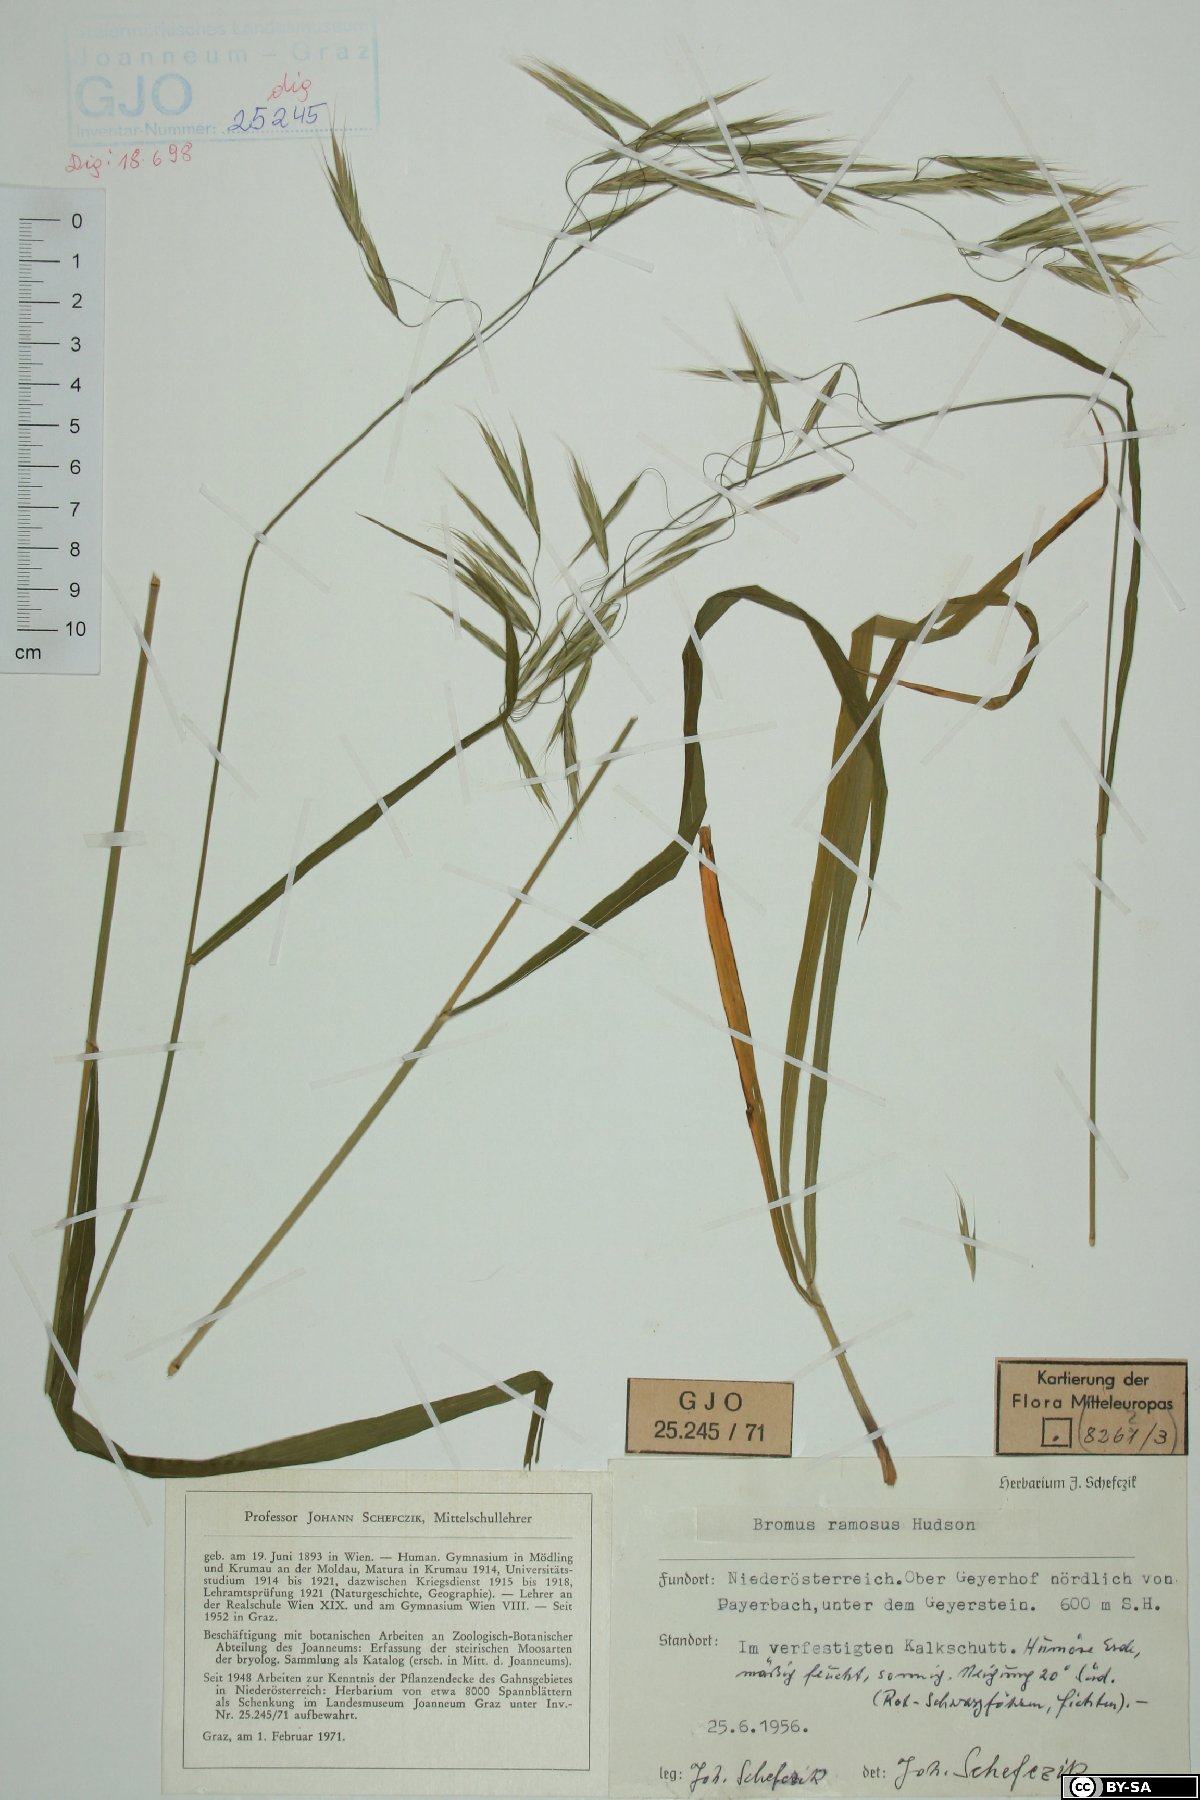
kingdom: Plantae
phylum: Tracheophyta
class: Liliopsida
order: Poales
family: Poaceae
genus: Bromus
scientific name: Bromus ramosus
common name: Hairy brome
